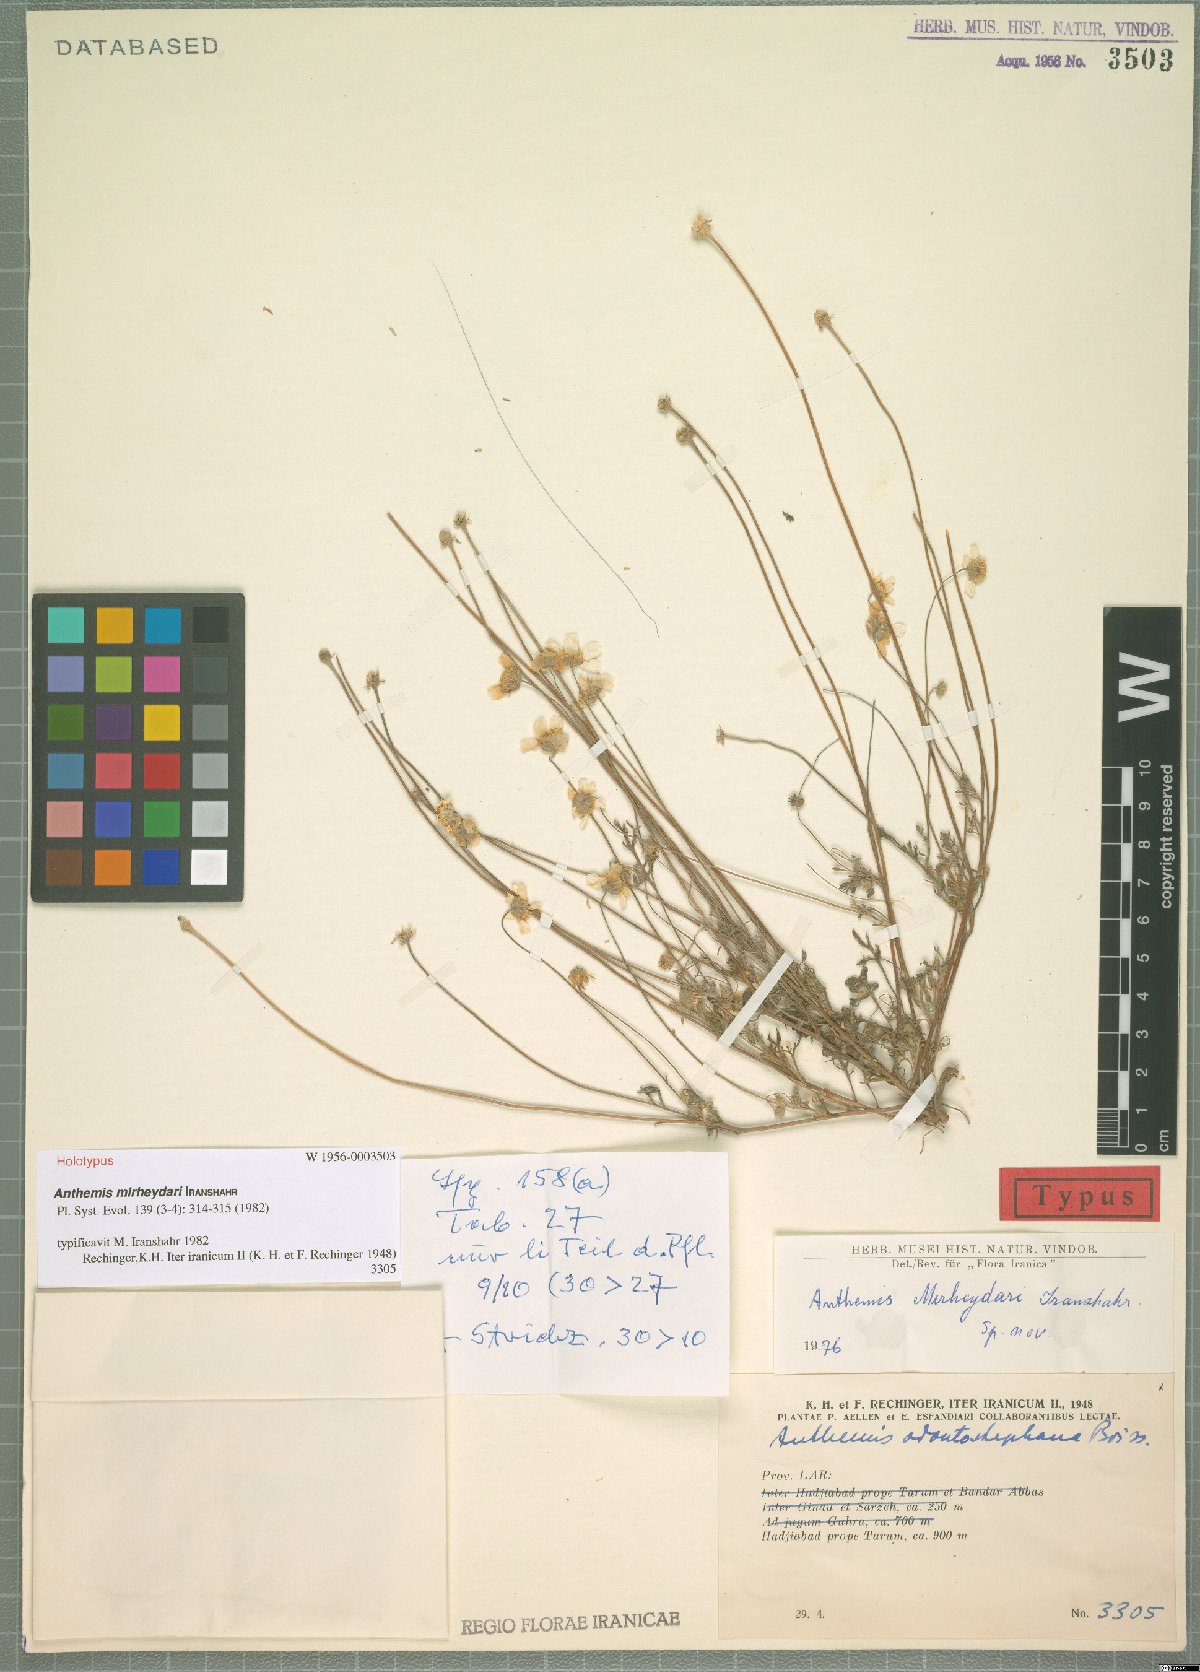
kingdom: Plantae
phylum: Tracheophyta
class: Magnoliopsida
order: Asterales
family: Asteraceae
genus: Anthemis
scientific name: Anthemis mirheydari
